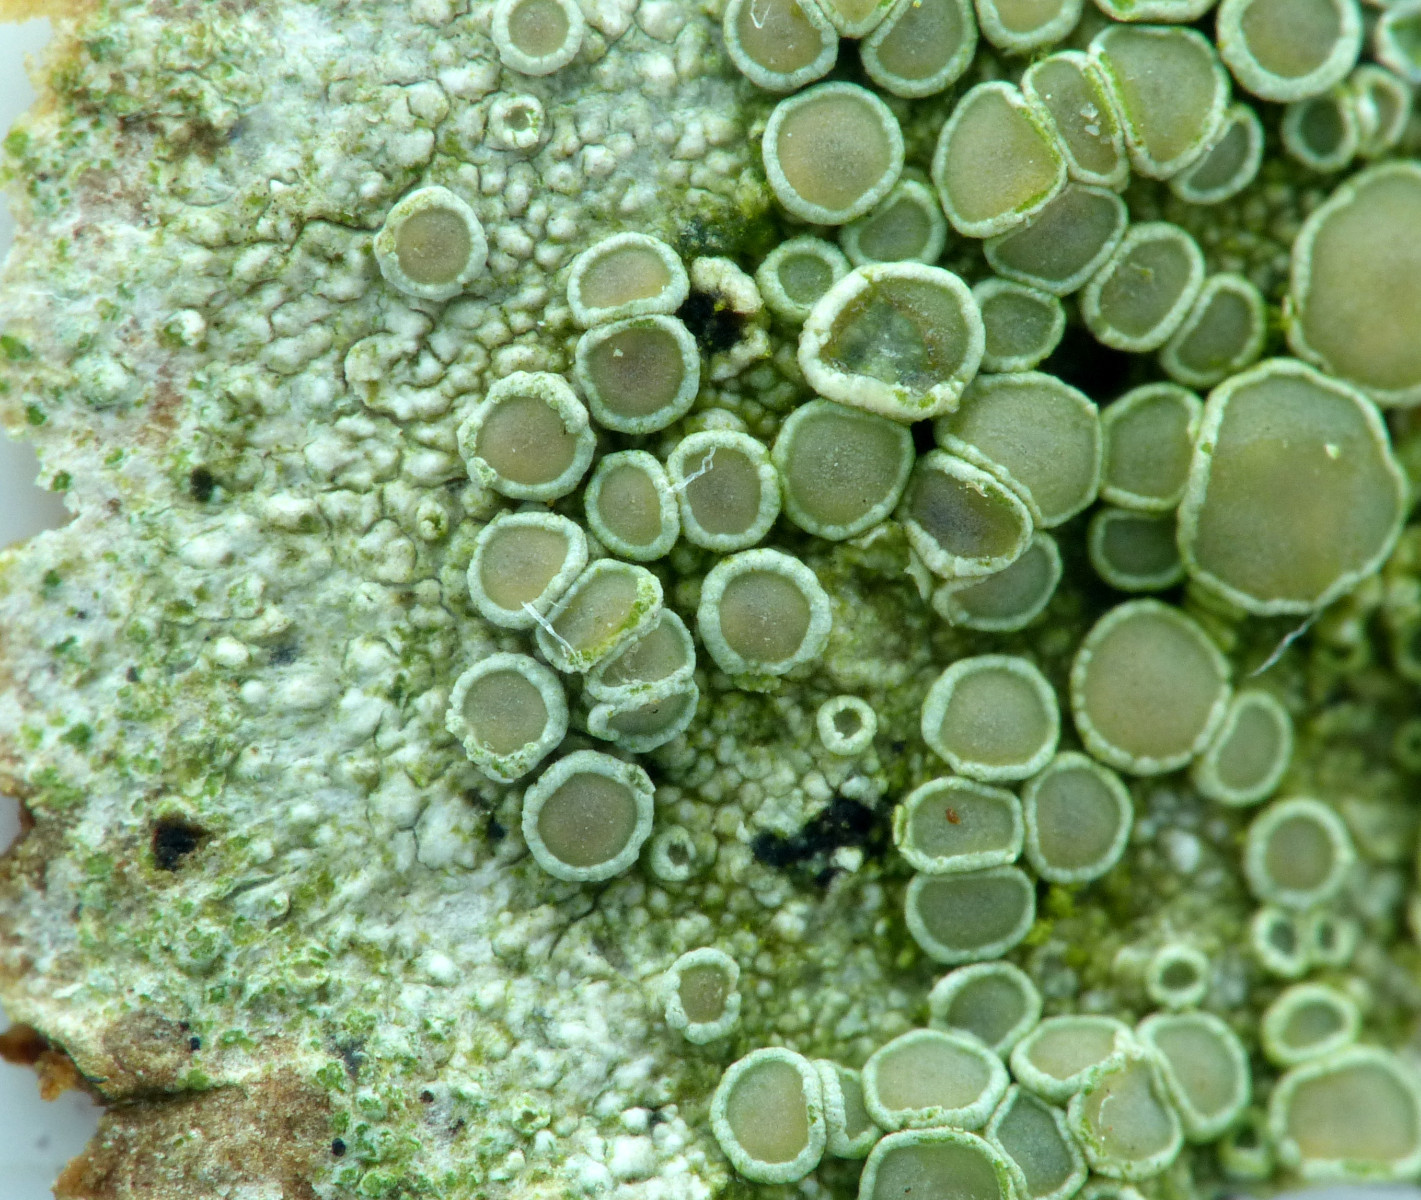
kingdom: Fungi
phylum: Ascomycota
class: Lecanoromycetes
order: Lecanorales
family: Lecanoraceae
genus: Lecanora
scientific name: Lecanora chlarotera
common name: brun kantskivelav
